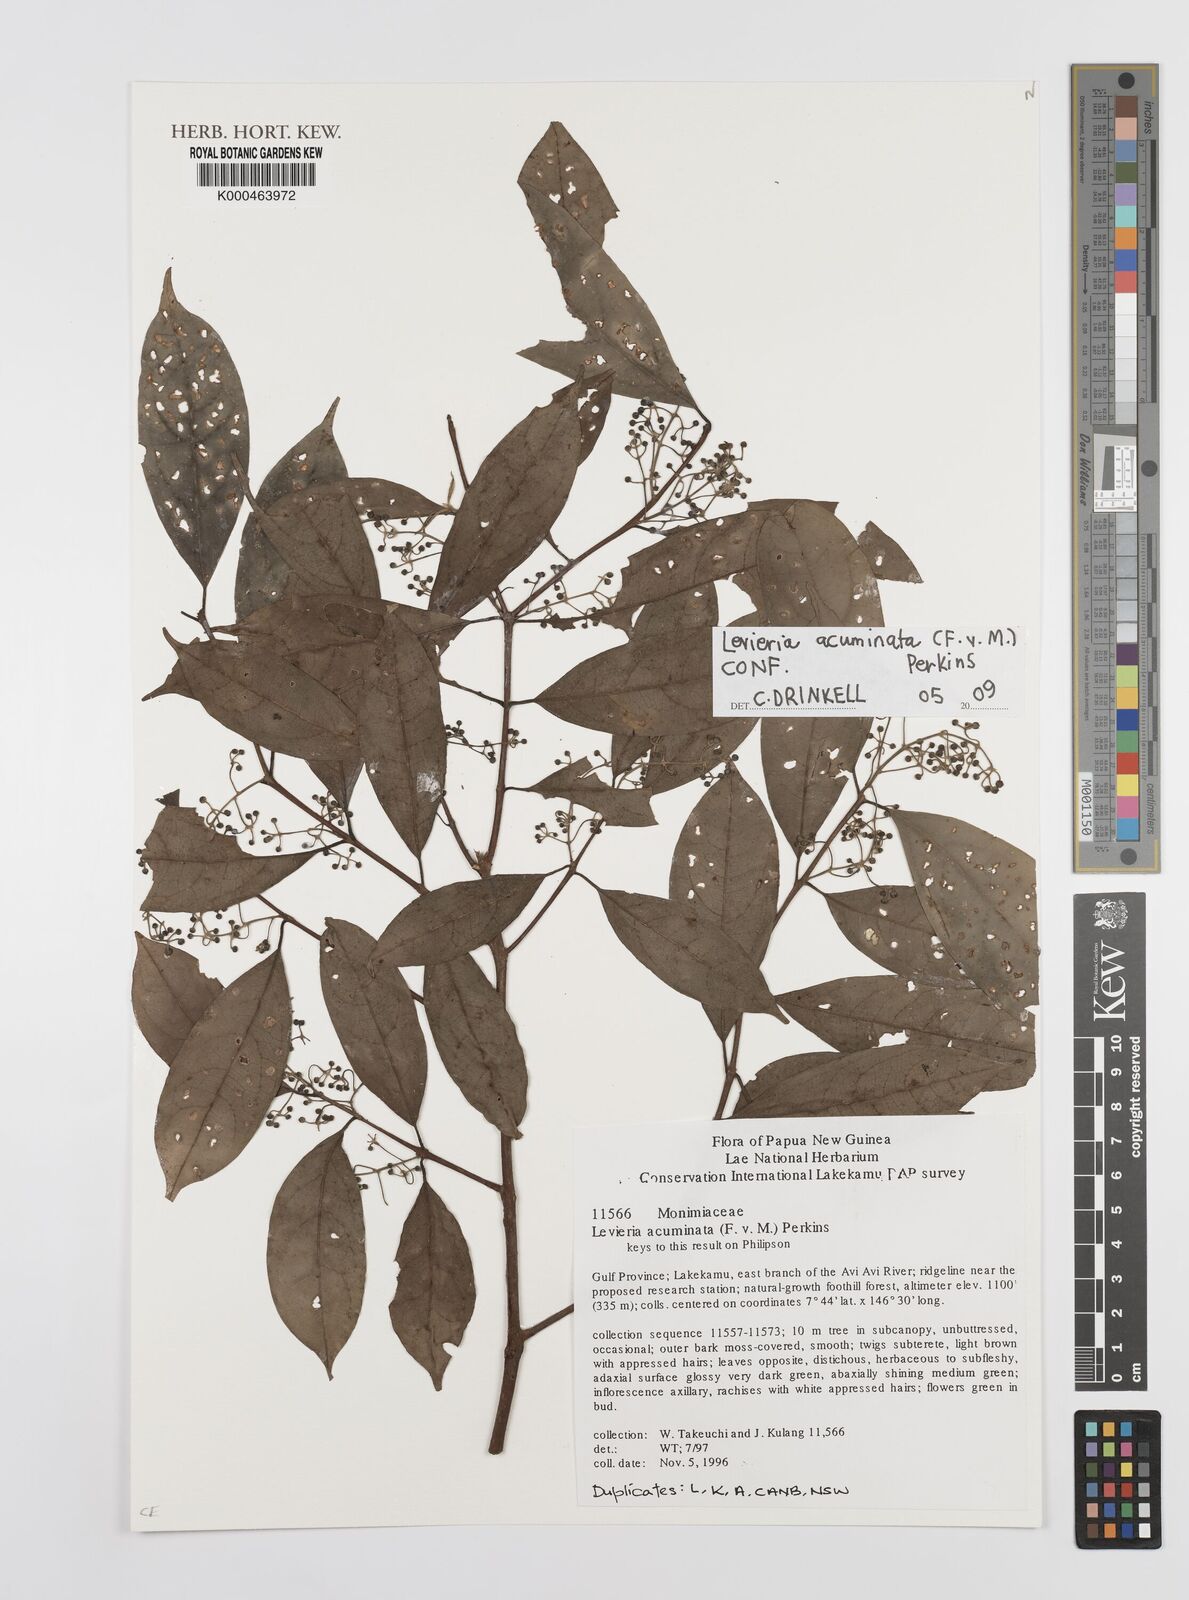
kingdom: Plantae
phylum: Tracheophyta
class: Magnoliopsida
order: Laurales
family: Monimiaceae
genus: Levieria
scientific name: Levieria acuminata
